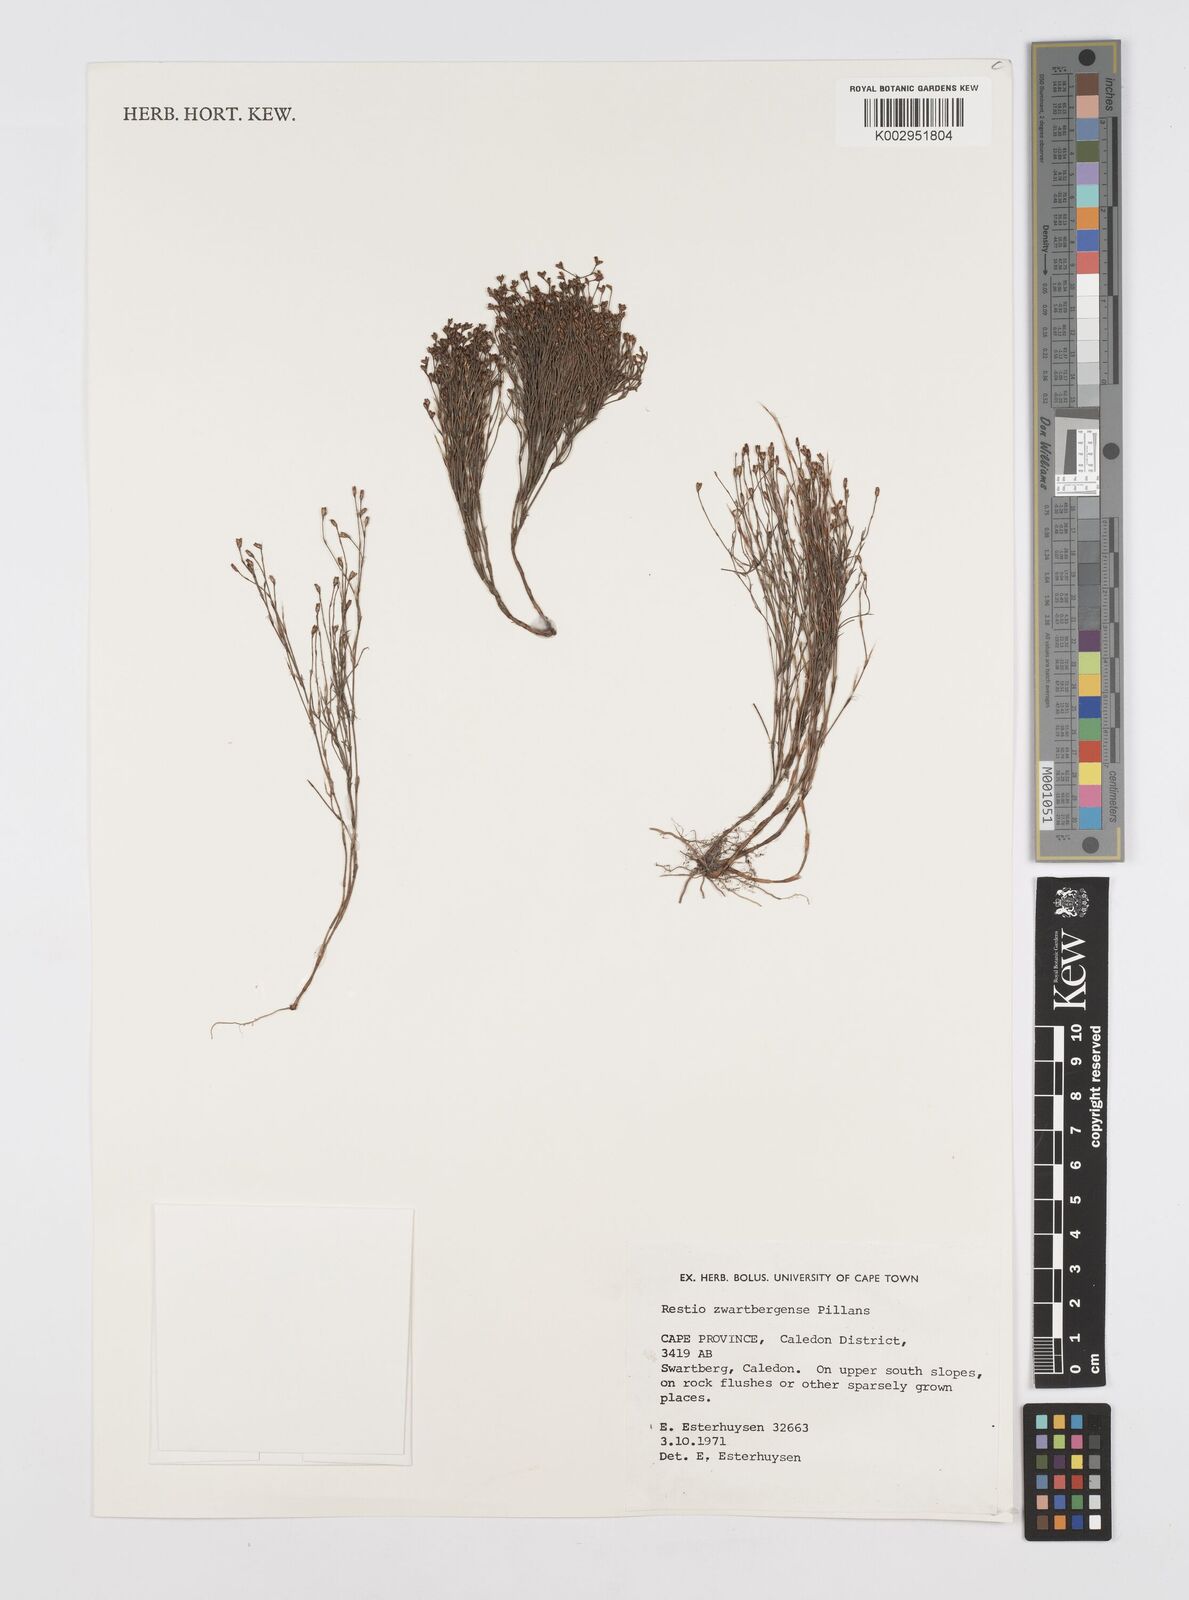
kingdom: Plantae
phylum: Tracheophyta
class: Liliopsida
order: Poales
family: Restionaceae
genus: Restio
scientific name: Restio zwartbergensis
